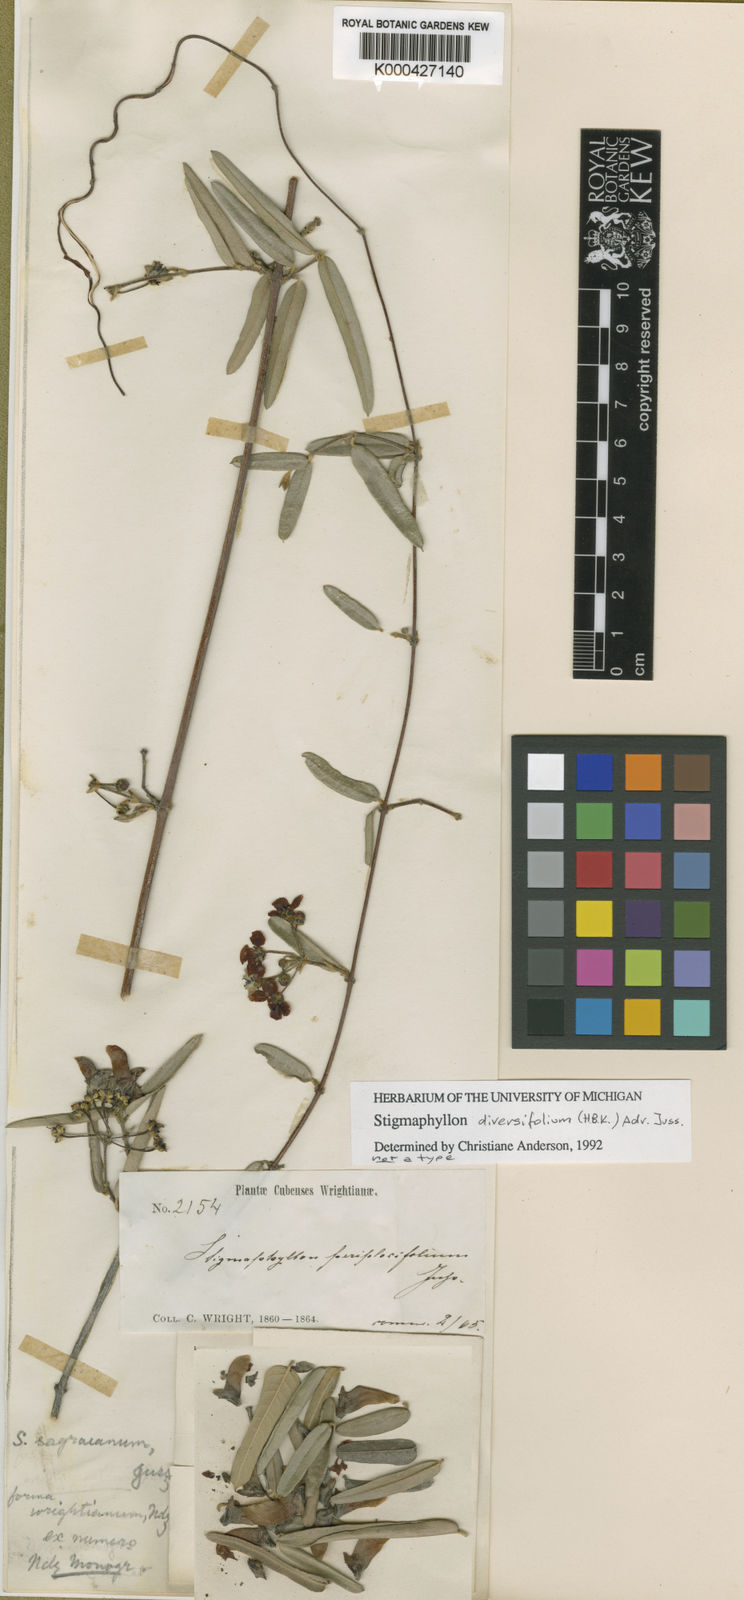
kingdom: Plantae
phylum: Tracheophyta
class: Magnoliopsida
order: Malpighiales
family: Malpighiaceae
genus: Stigmaphyllon
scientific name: Stigmaphyllon diversifolium
